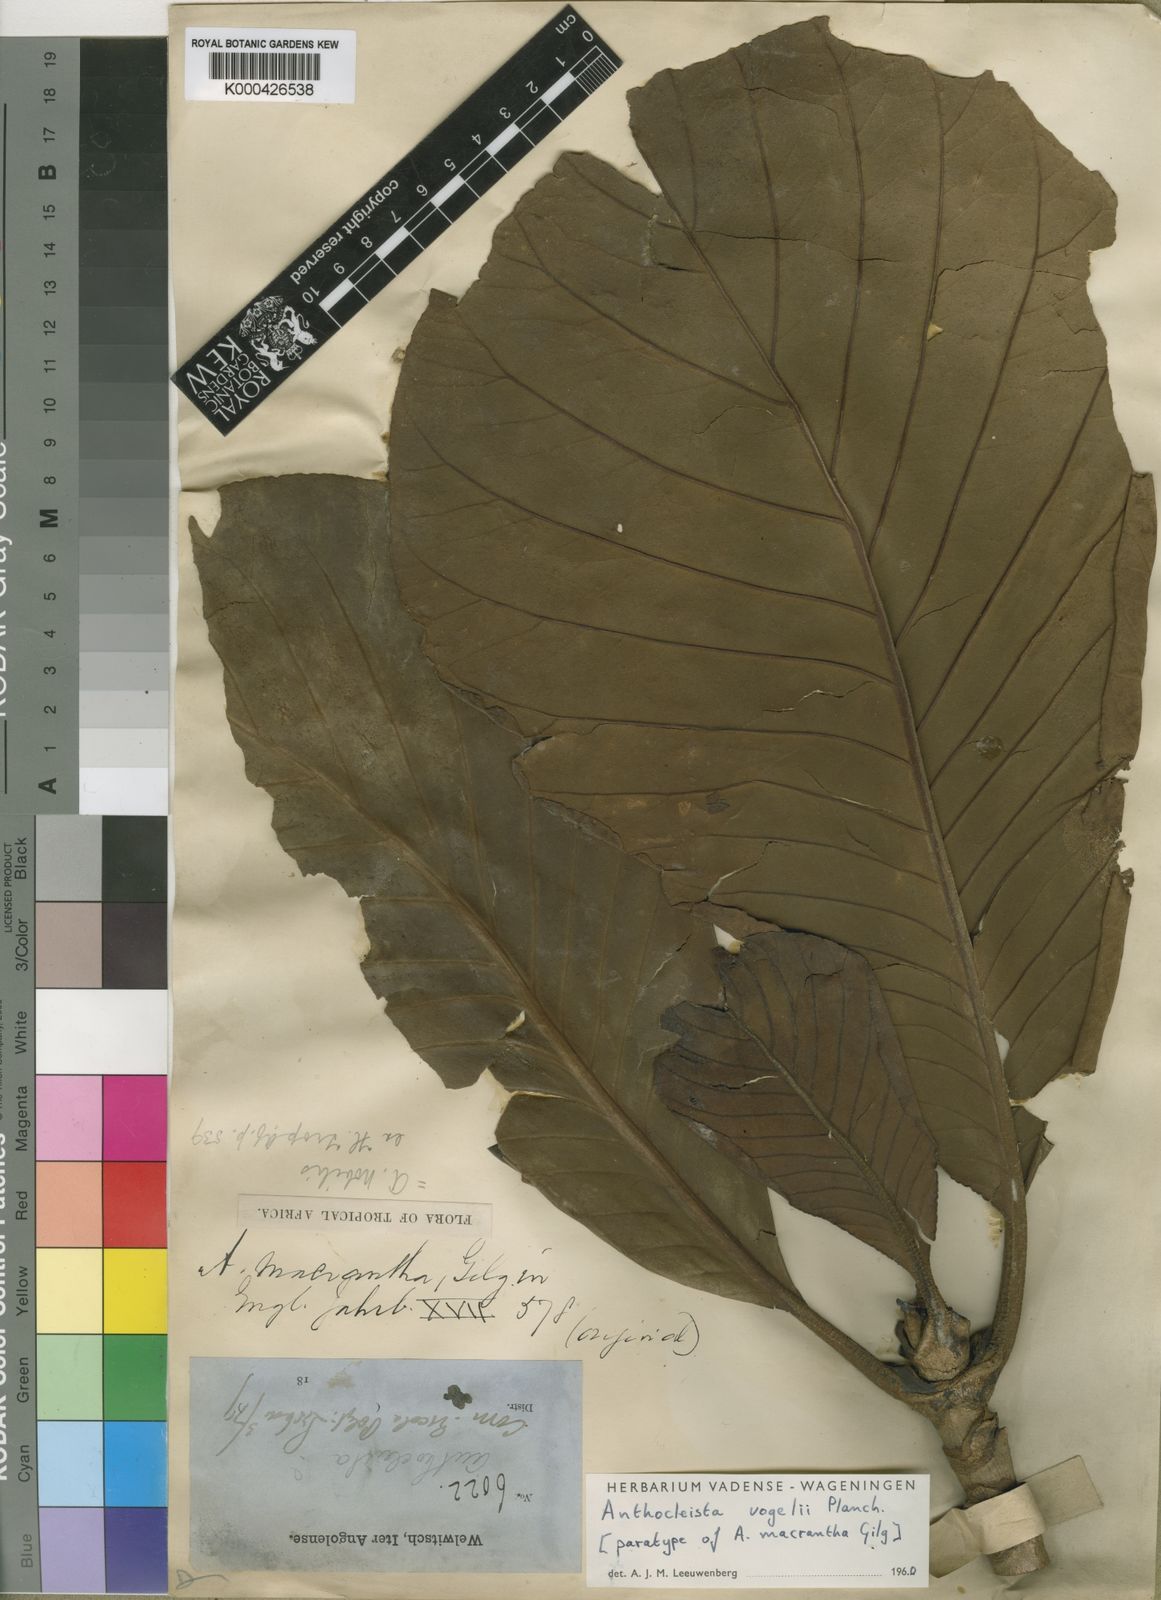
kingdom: Plantae
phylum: Tracheophyta
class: Magnoliopsida
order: Gentianales
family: Gentianaceae
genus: Anthocleista
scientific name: Anthocleista vogelii
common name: Cabbage tree
